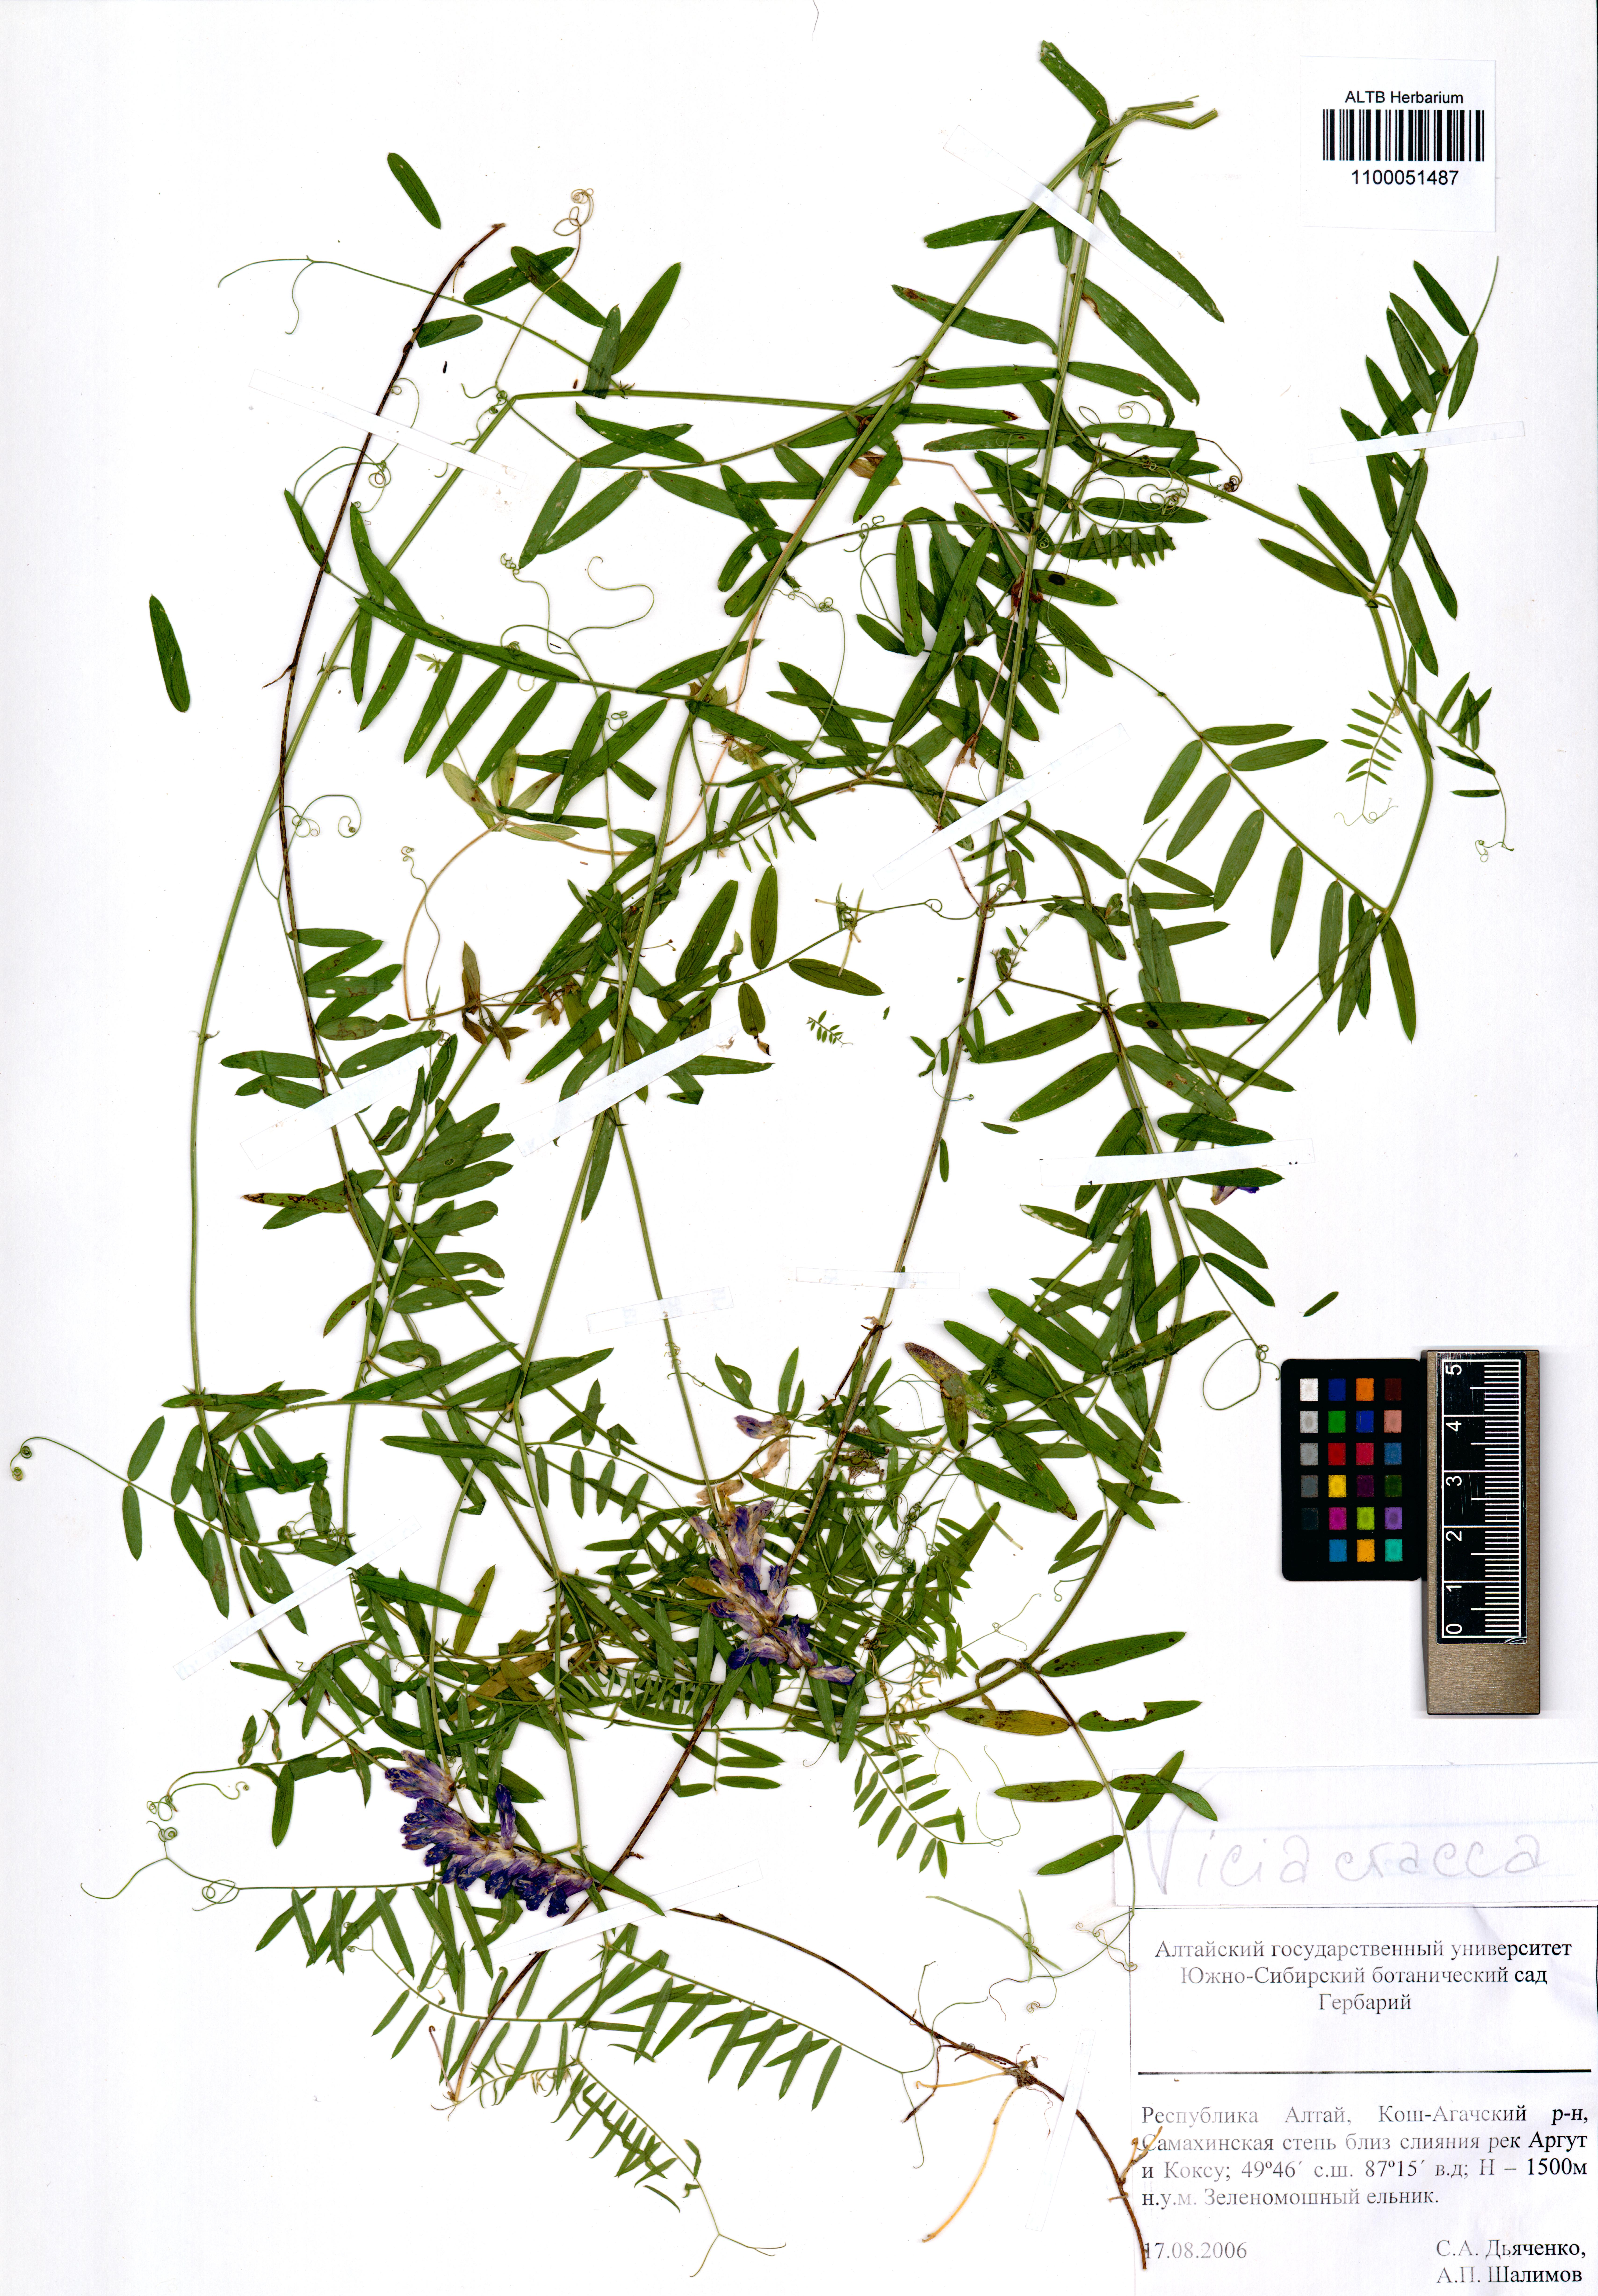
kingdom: Plantae
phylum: Tracheophyta
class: Magnoliopsida
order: Fabales
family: Fabaceae
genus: Vicia
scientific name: Vicia cracca
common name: Bird vetch
